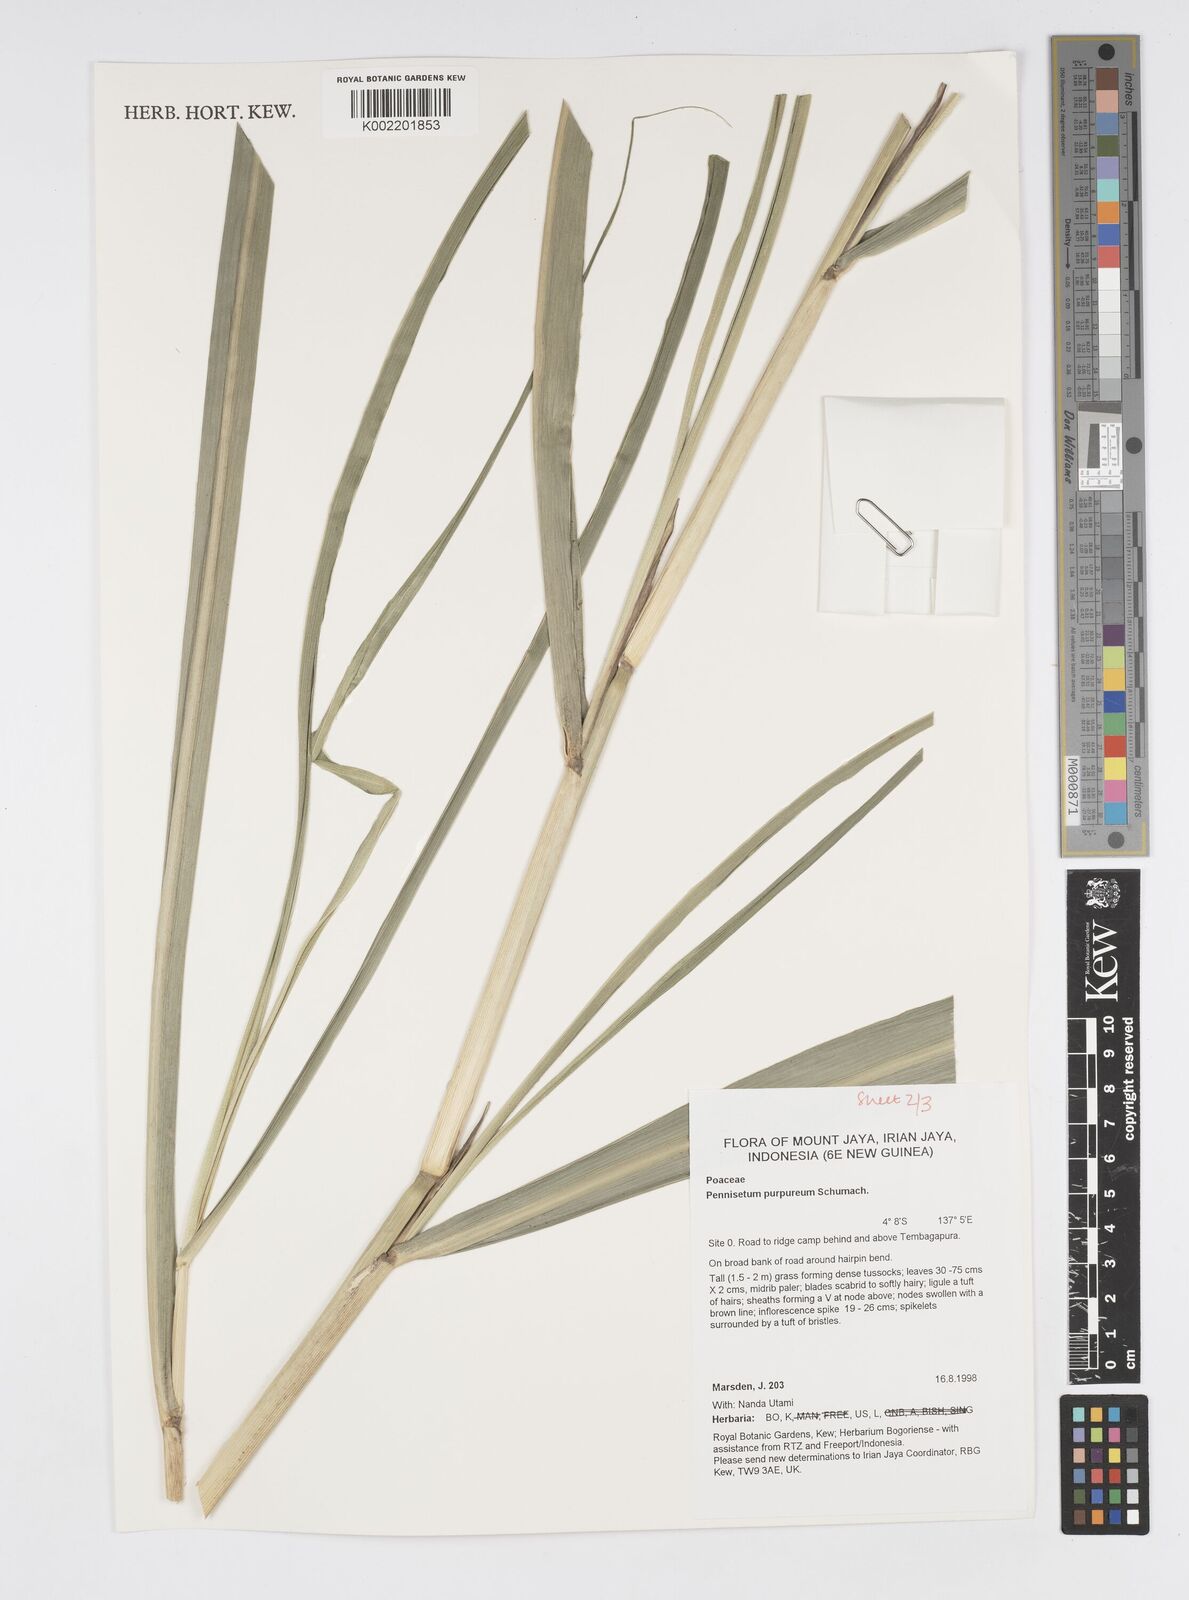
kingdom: Plantae
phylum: Tracheophyta
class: Liliopsida
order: Poales
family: Poaceae
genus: Cenchrus
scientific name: Cenchrus purpureus
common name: Elephant grass
